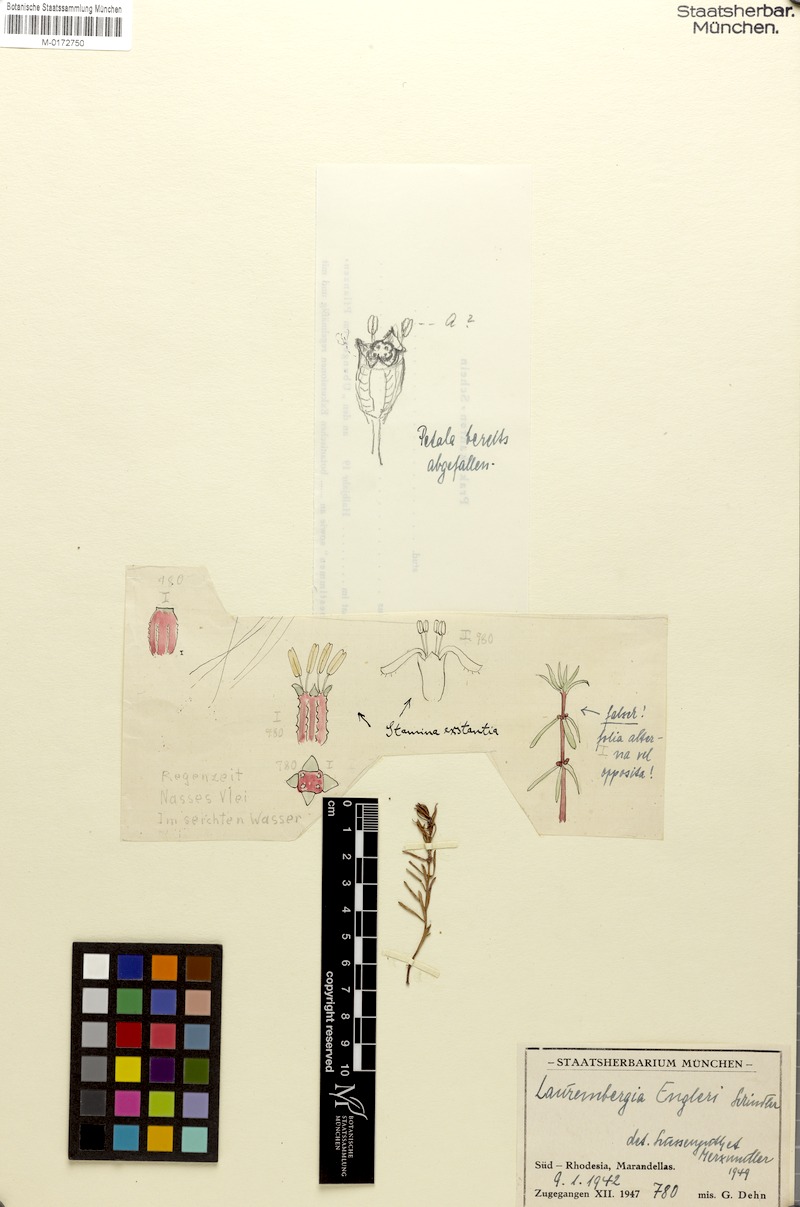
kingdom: Plantae
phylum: Tracheophyta
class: Magnoliopsida
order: Saxifragales
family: Haloragaceae
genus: Laurembergia
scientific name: Laurembergia tetrandra
